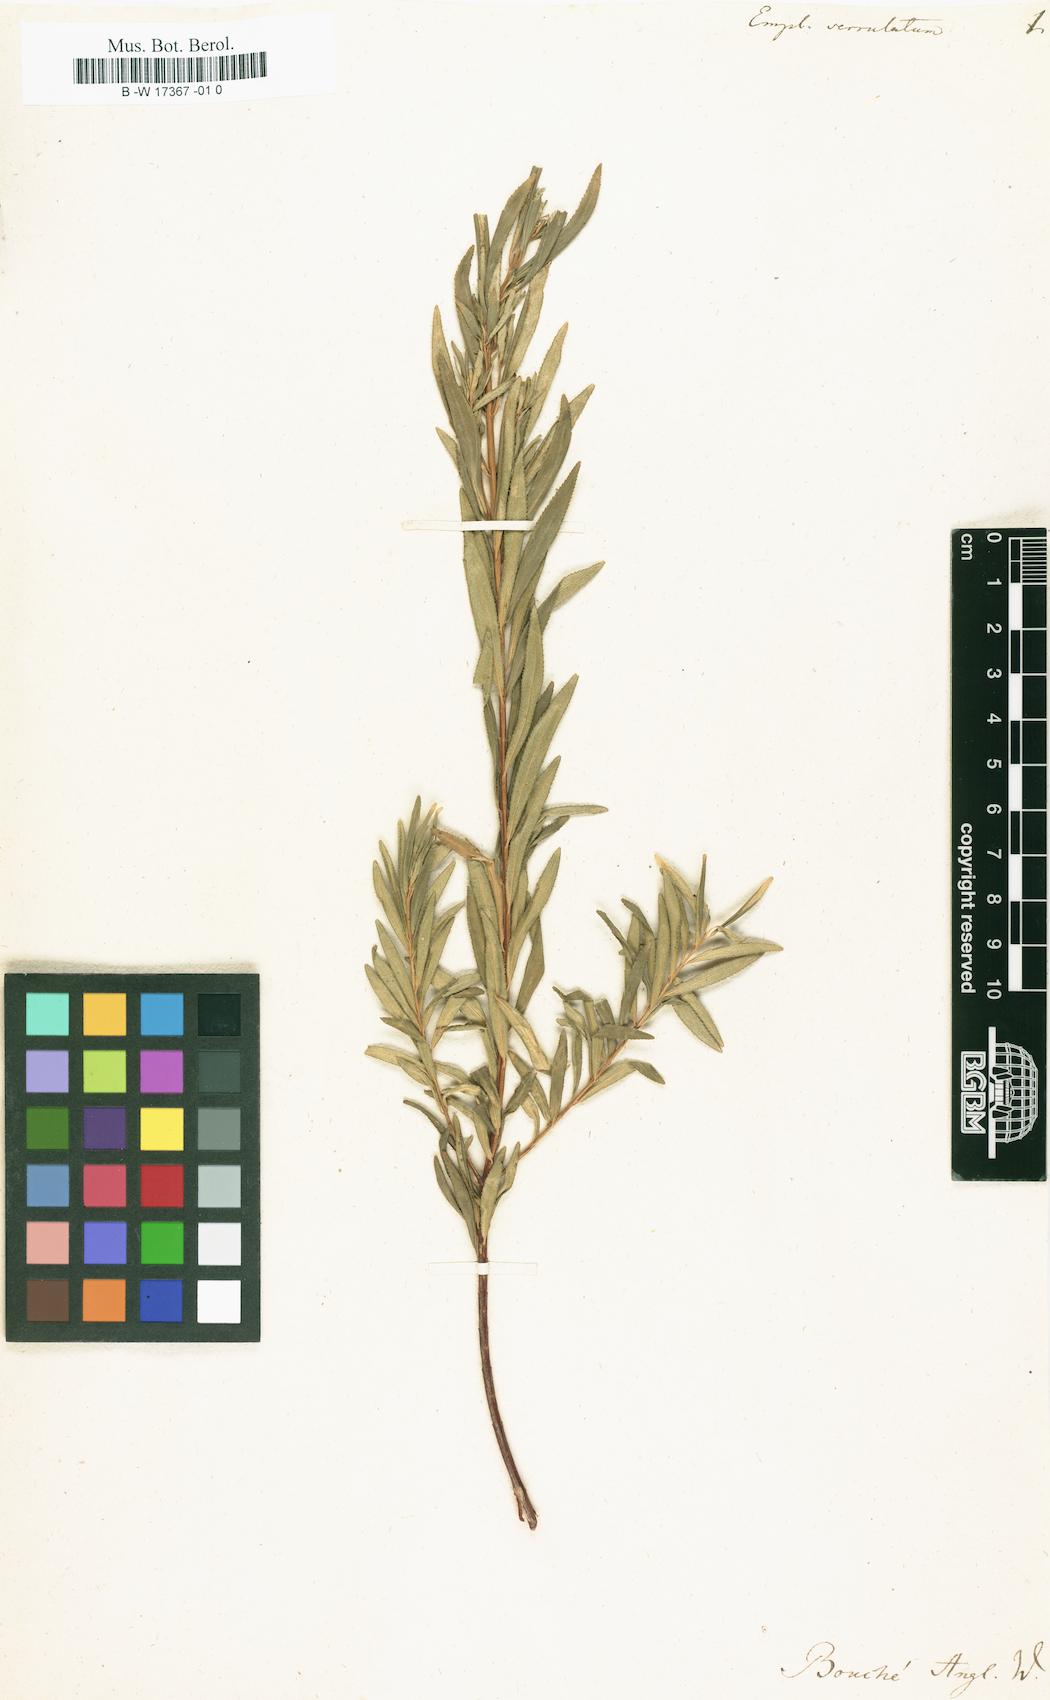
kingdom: Plantae
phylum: Tracheophyta
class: Magnoliopsida
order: Sapindales
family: Rutaceae
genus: Empleurum
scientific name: Empleurum unicapsulare
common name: False buchu
